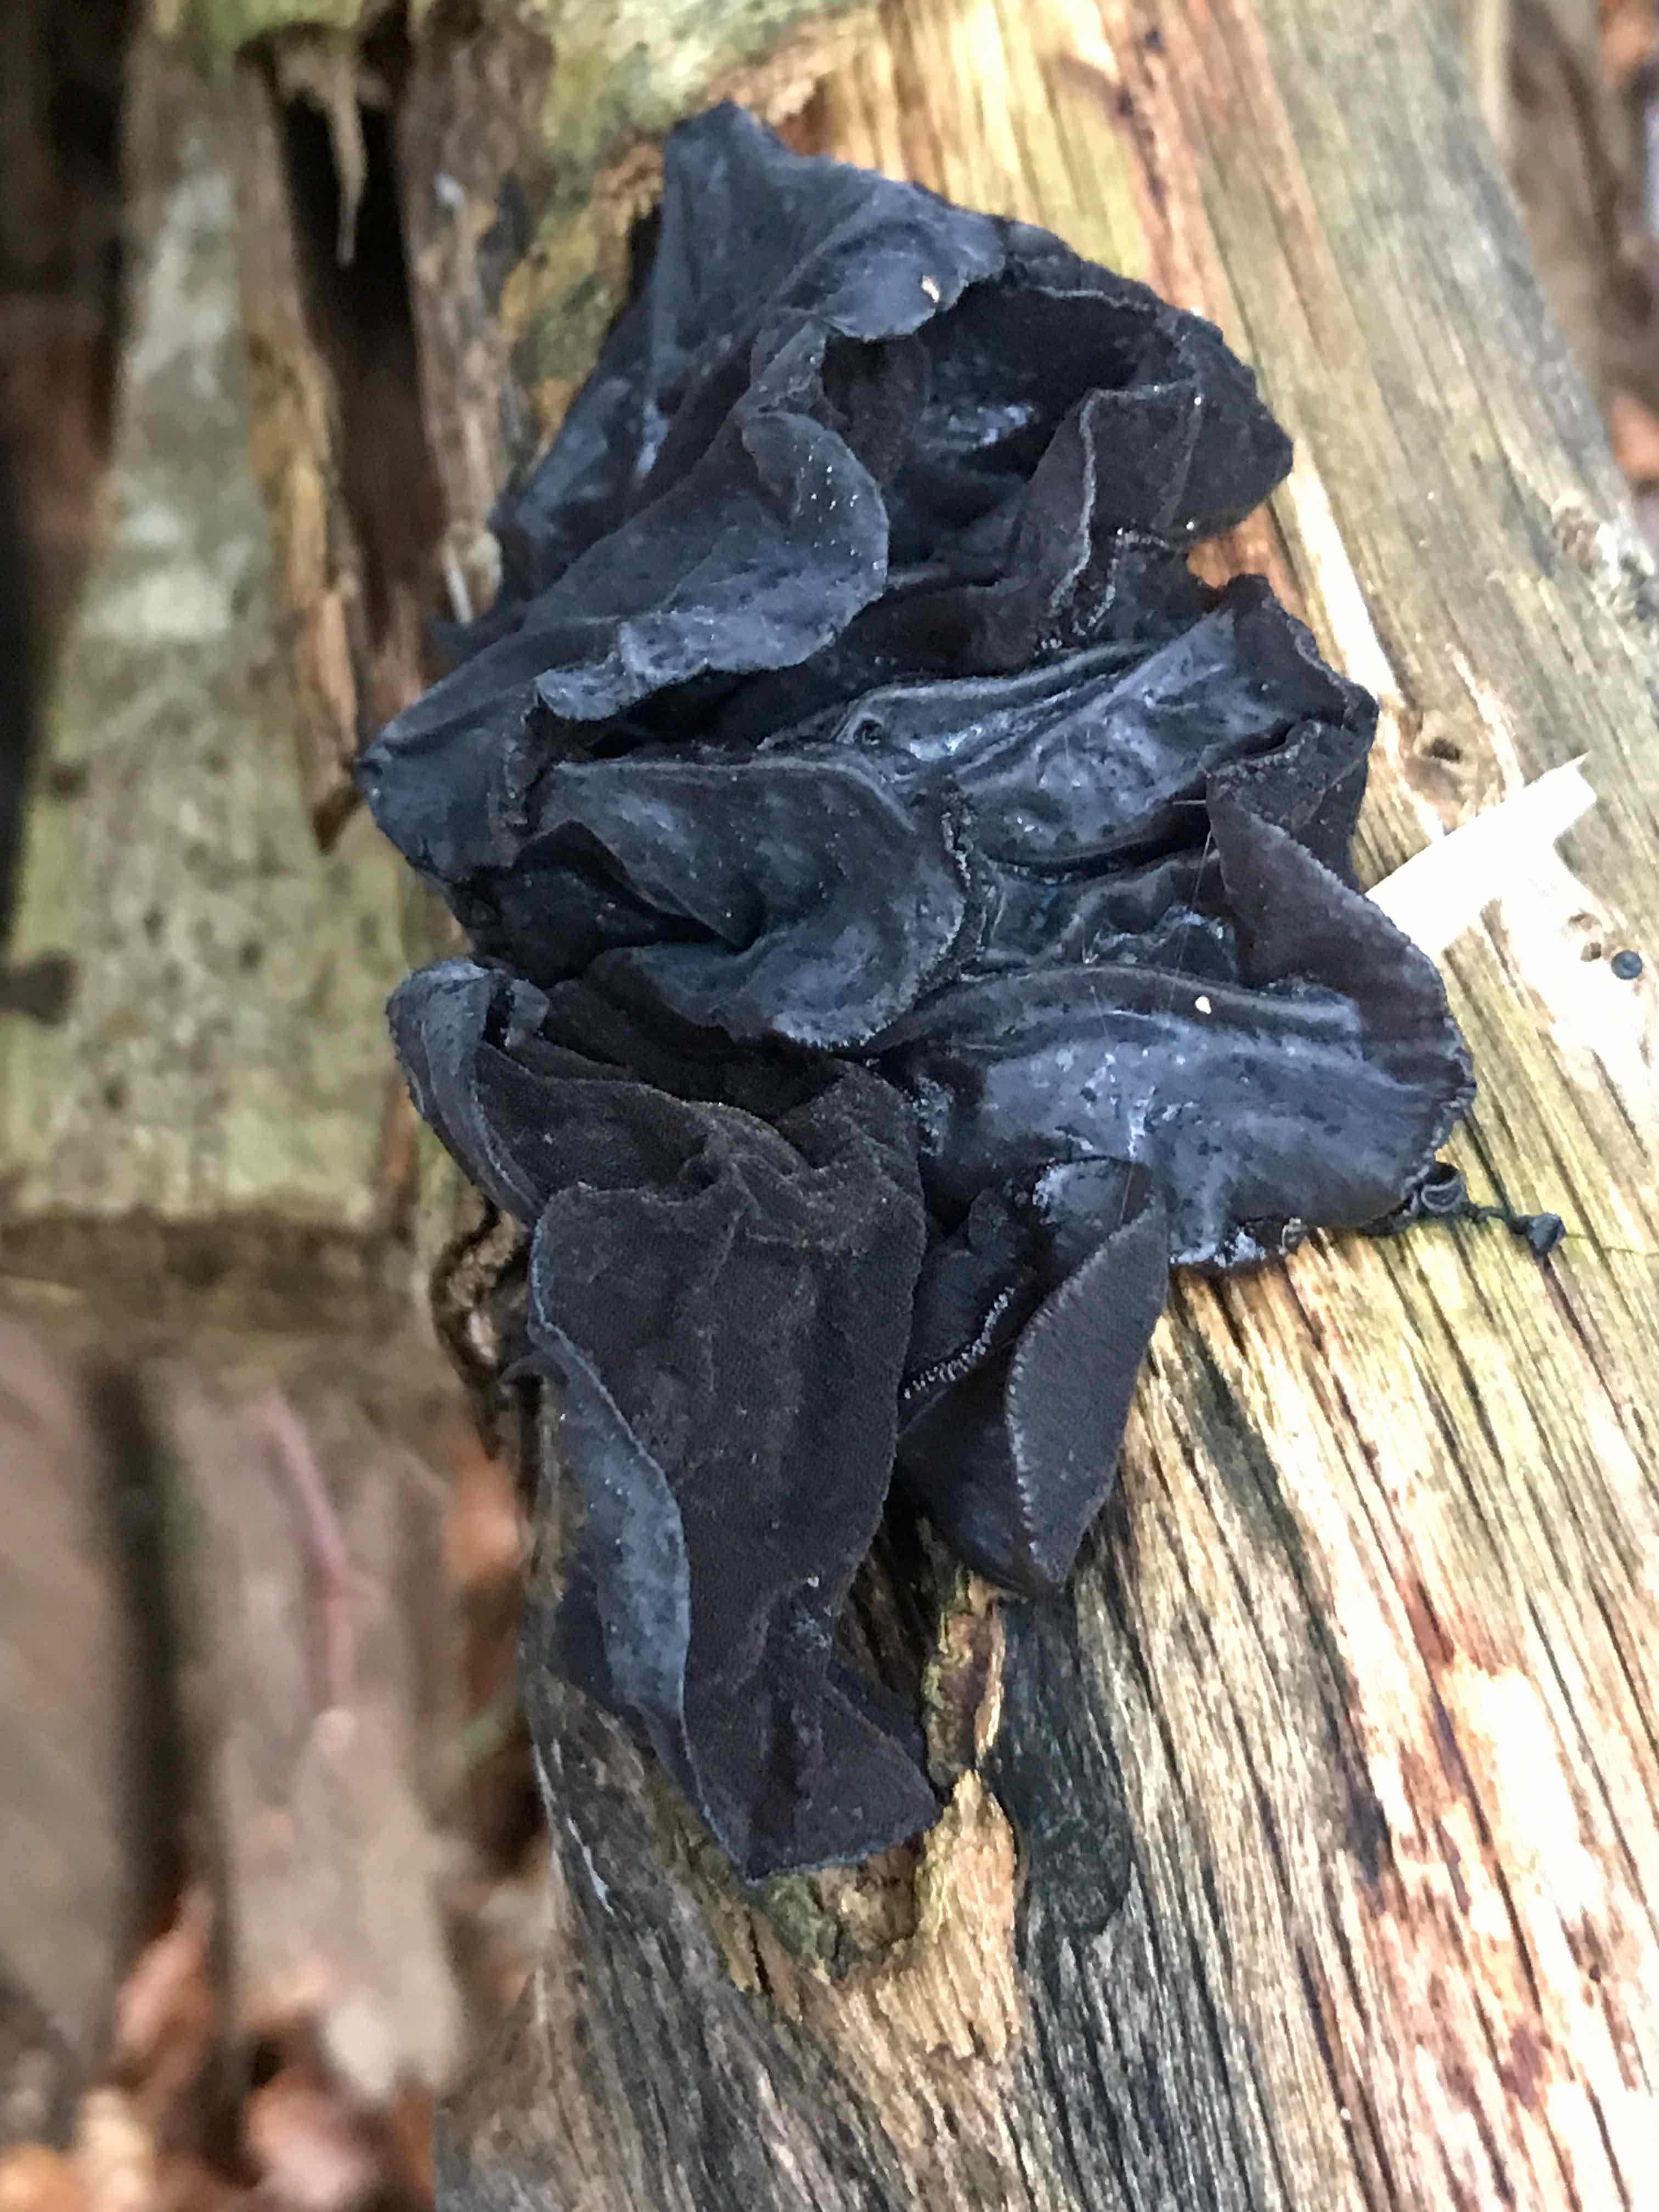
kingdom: Fungi
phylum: Basidiomycota
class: Agaricomycetes
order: Auriculariales
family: Auriculariaceae
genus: Exidia
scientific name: Exidia glandulosa
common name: ege-bævretop
